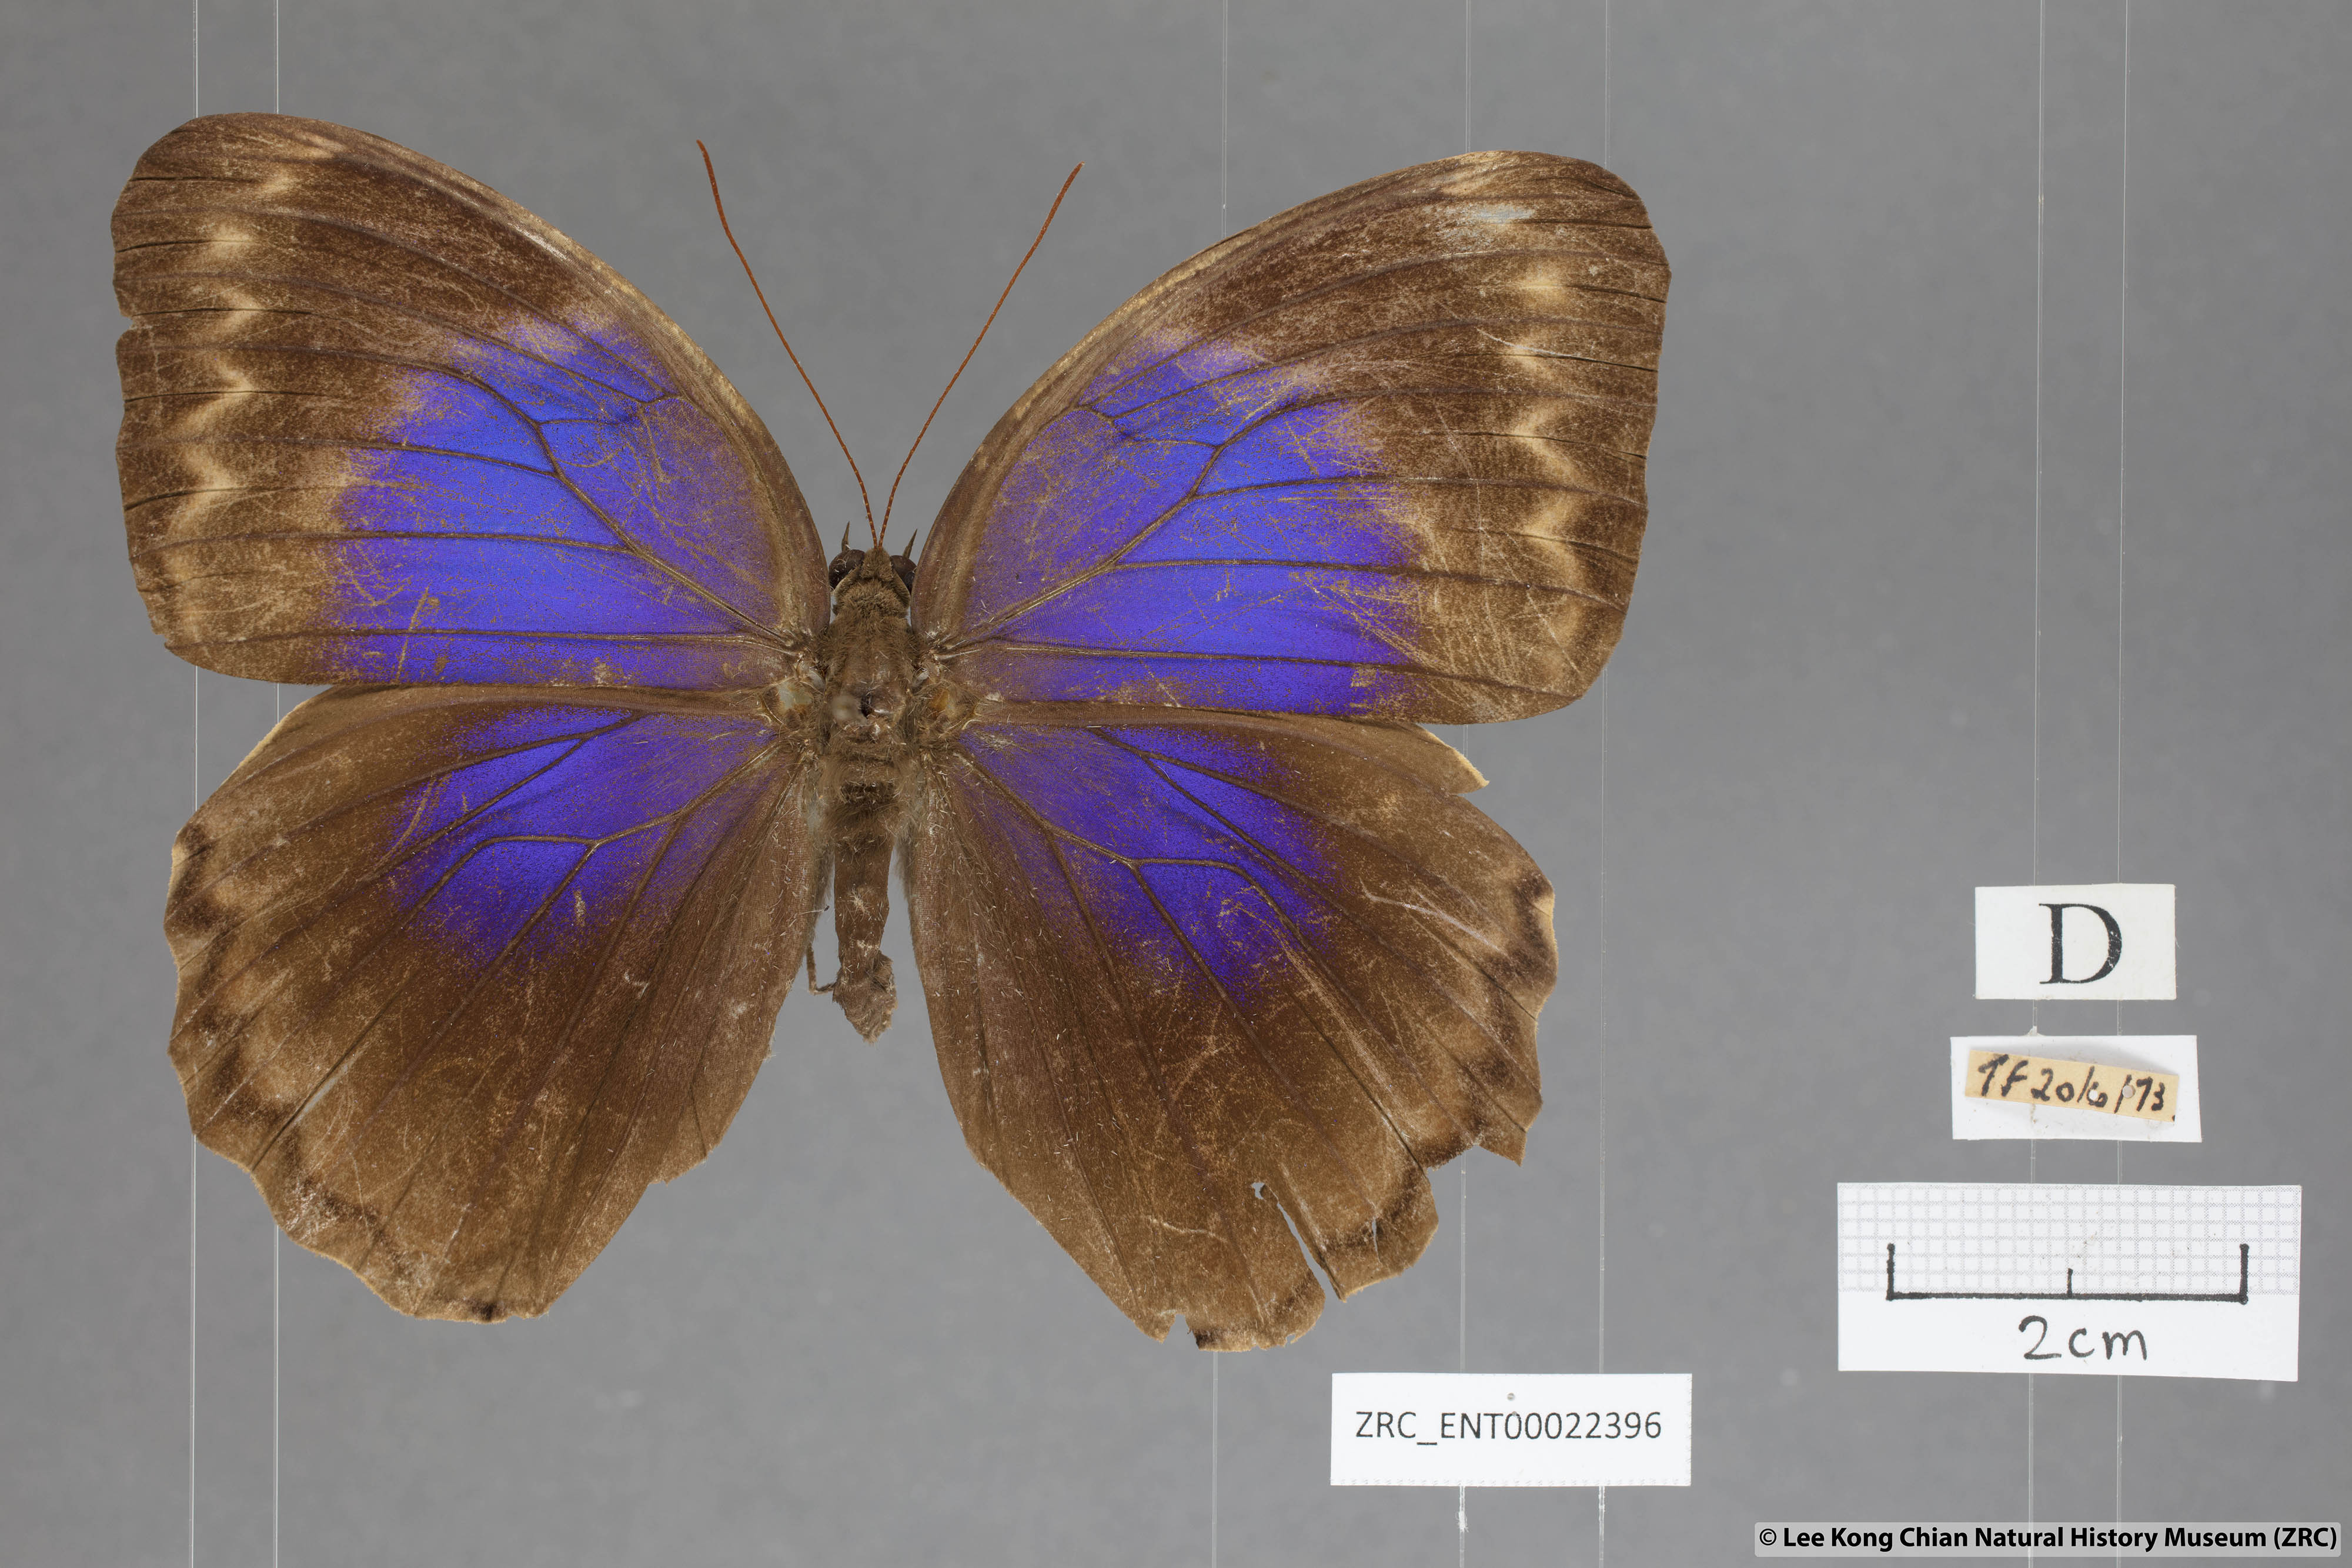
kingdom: Animalia
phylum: Arthropoda
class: Insecta
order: Lepidoptera
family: Nymphalidae
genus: Thaumantis
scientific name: Thaumantis klugius
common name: Dark blue jungle glory
